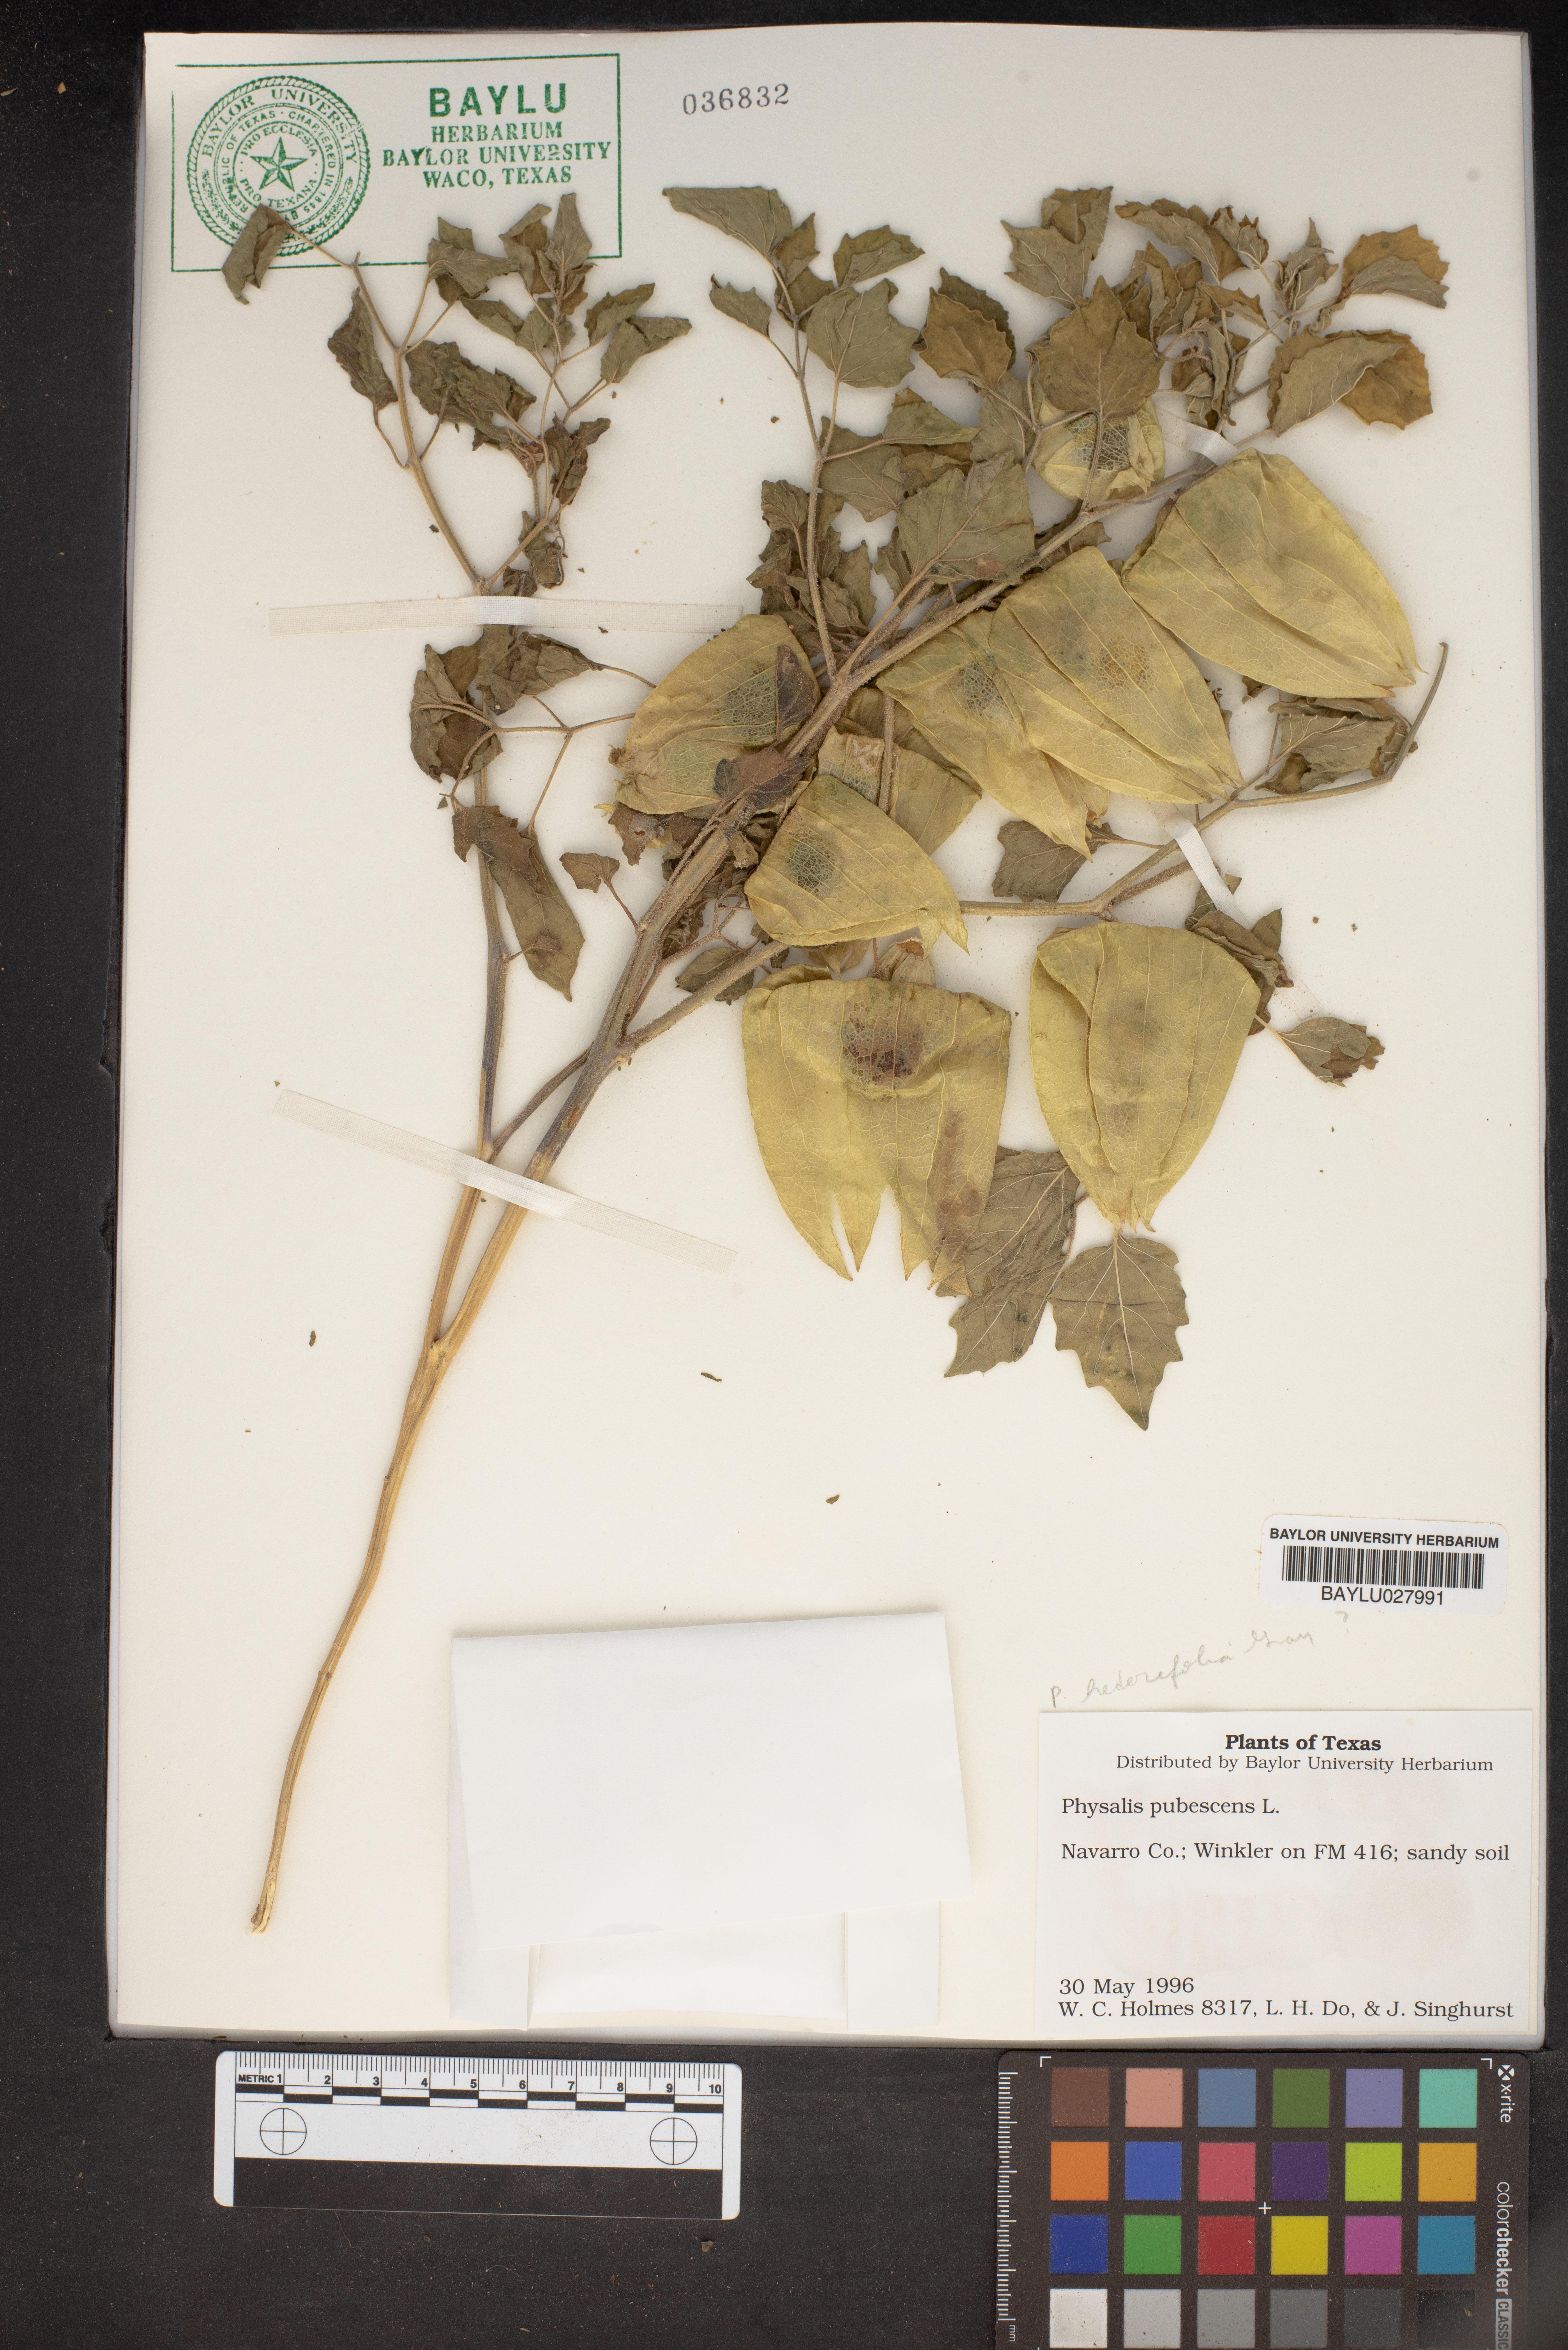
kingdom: Plantae
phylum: Tracheophyta
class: Magnoliopsida
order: Solanales
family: Solanaceae
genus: Physalis
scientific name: Physalis pubescens
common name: Downy ground-cherry
